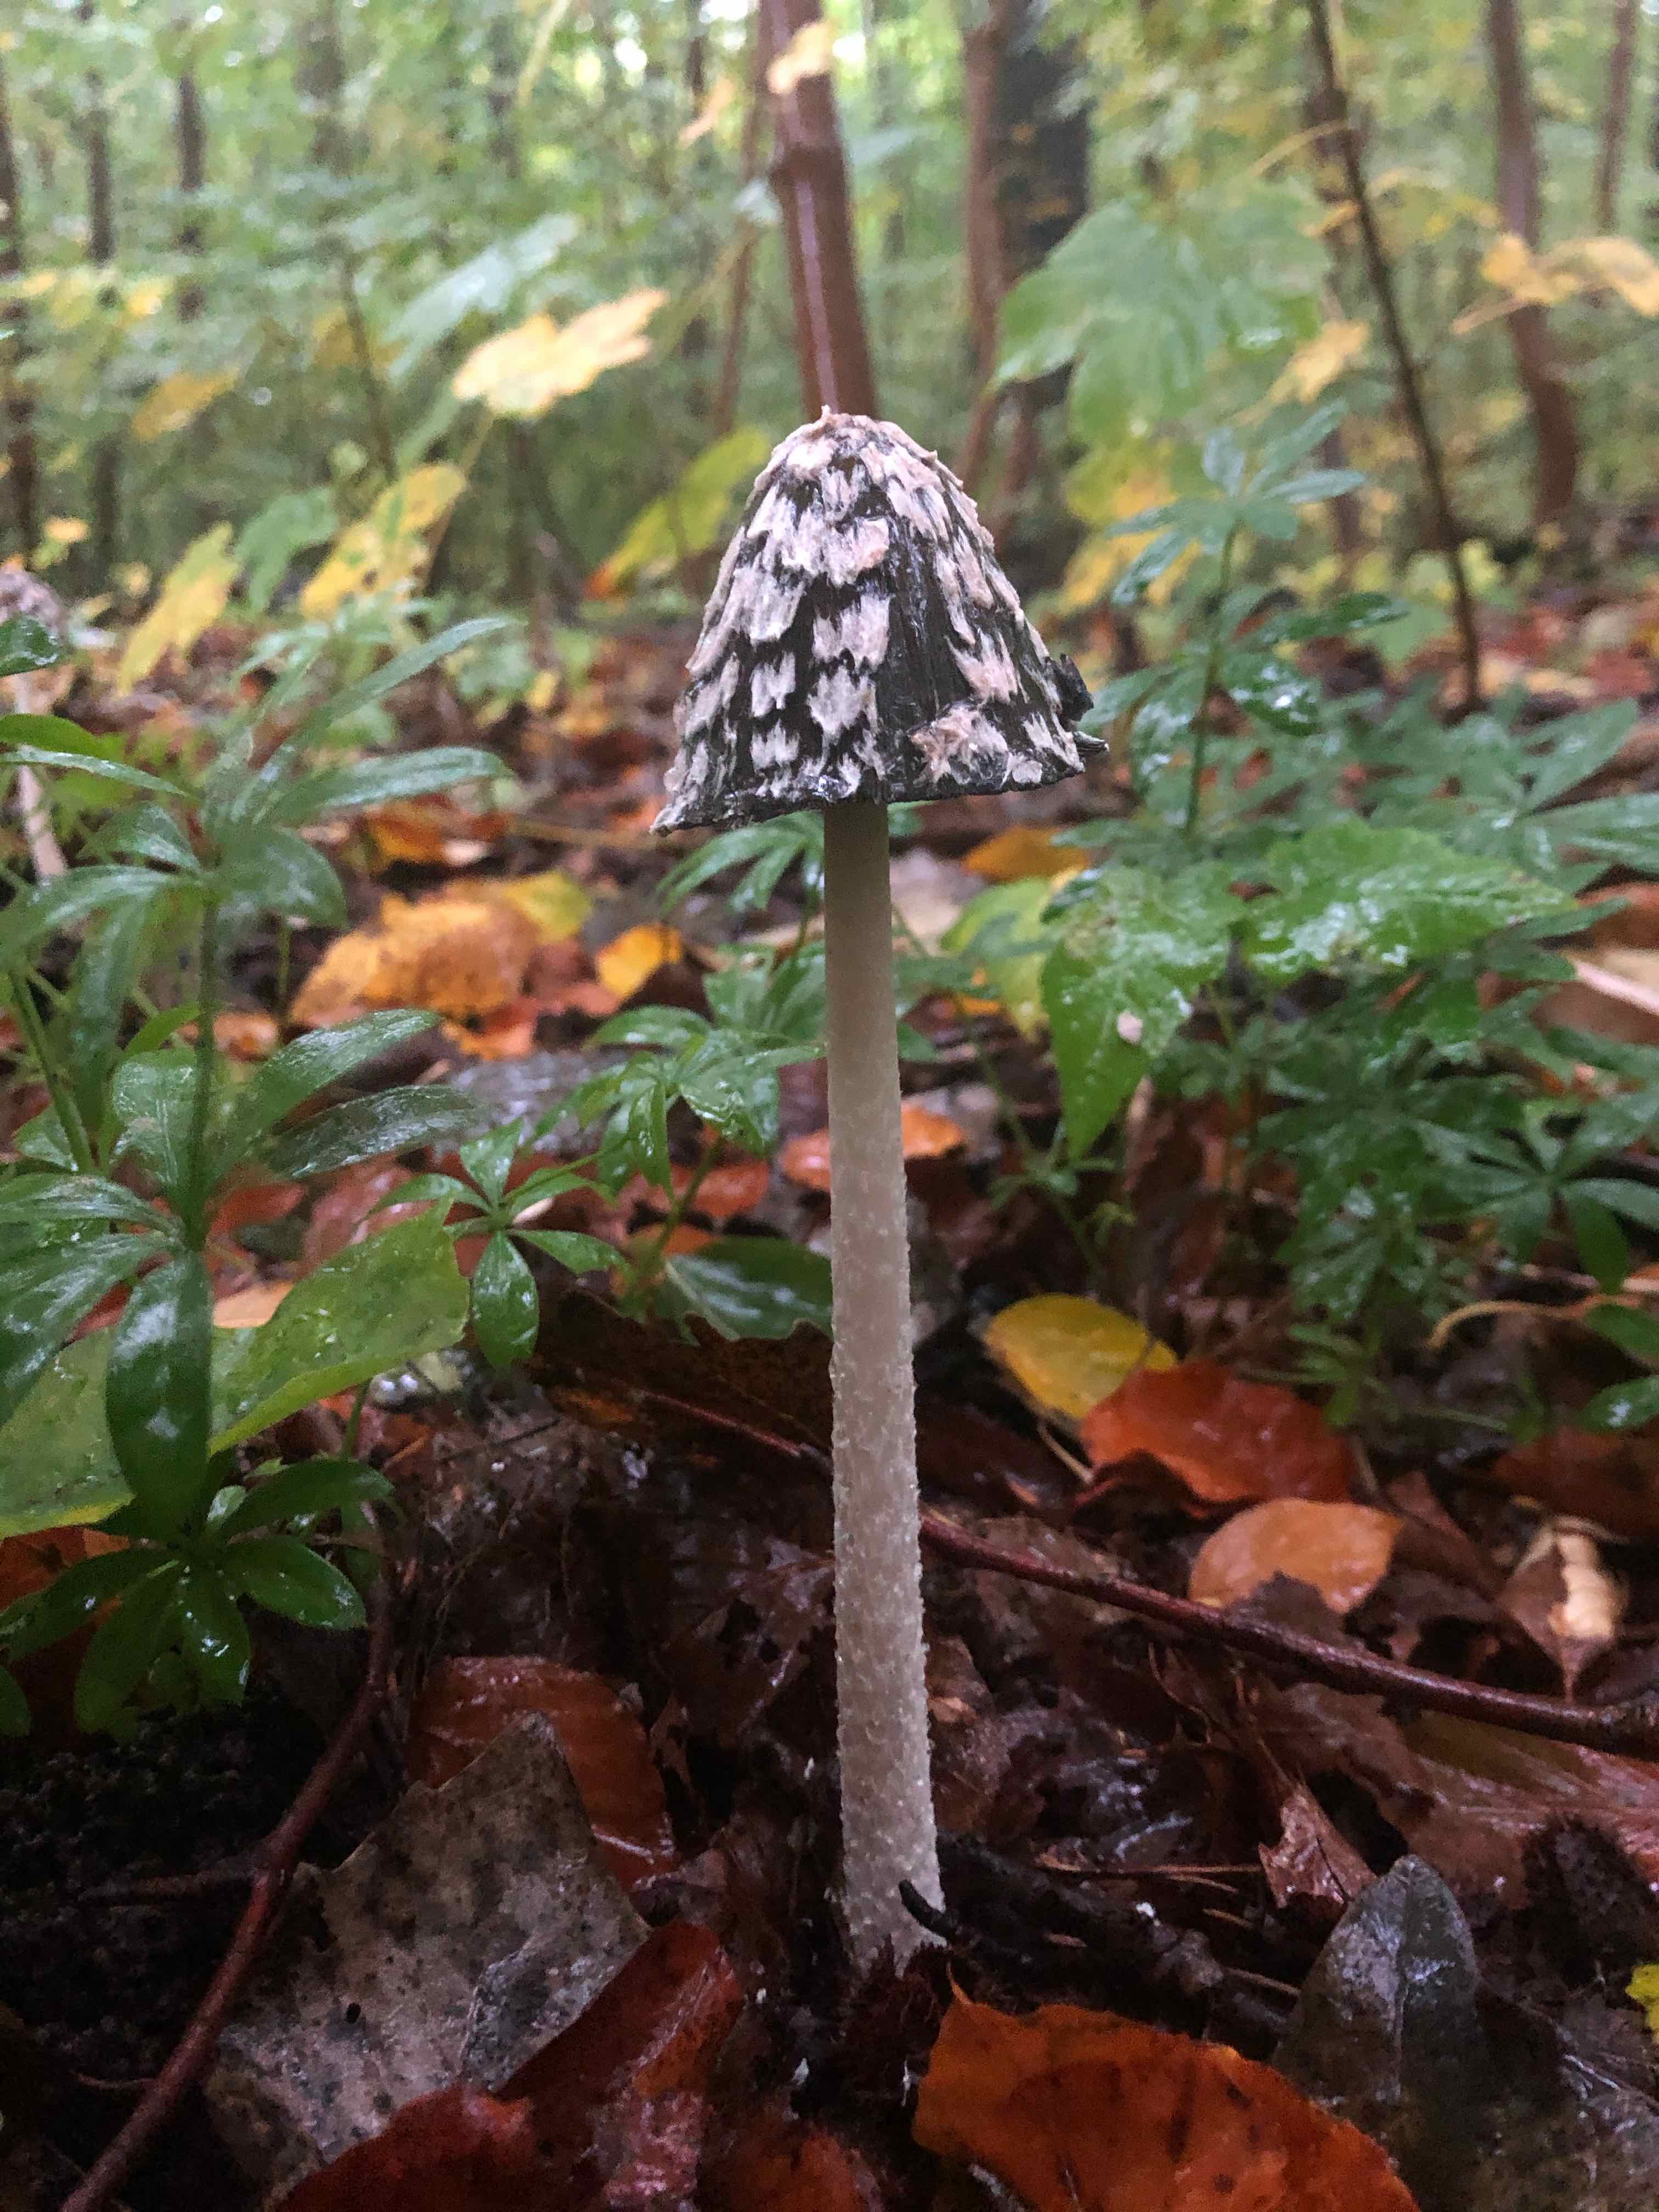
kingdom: Fungi
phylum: Basidiomycota
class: Agaricomycetes
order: Agaricales
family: Psathyrellaceae
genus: Coprinopsis
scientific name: Coprinopsis picacea
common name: skade-blækhat
